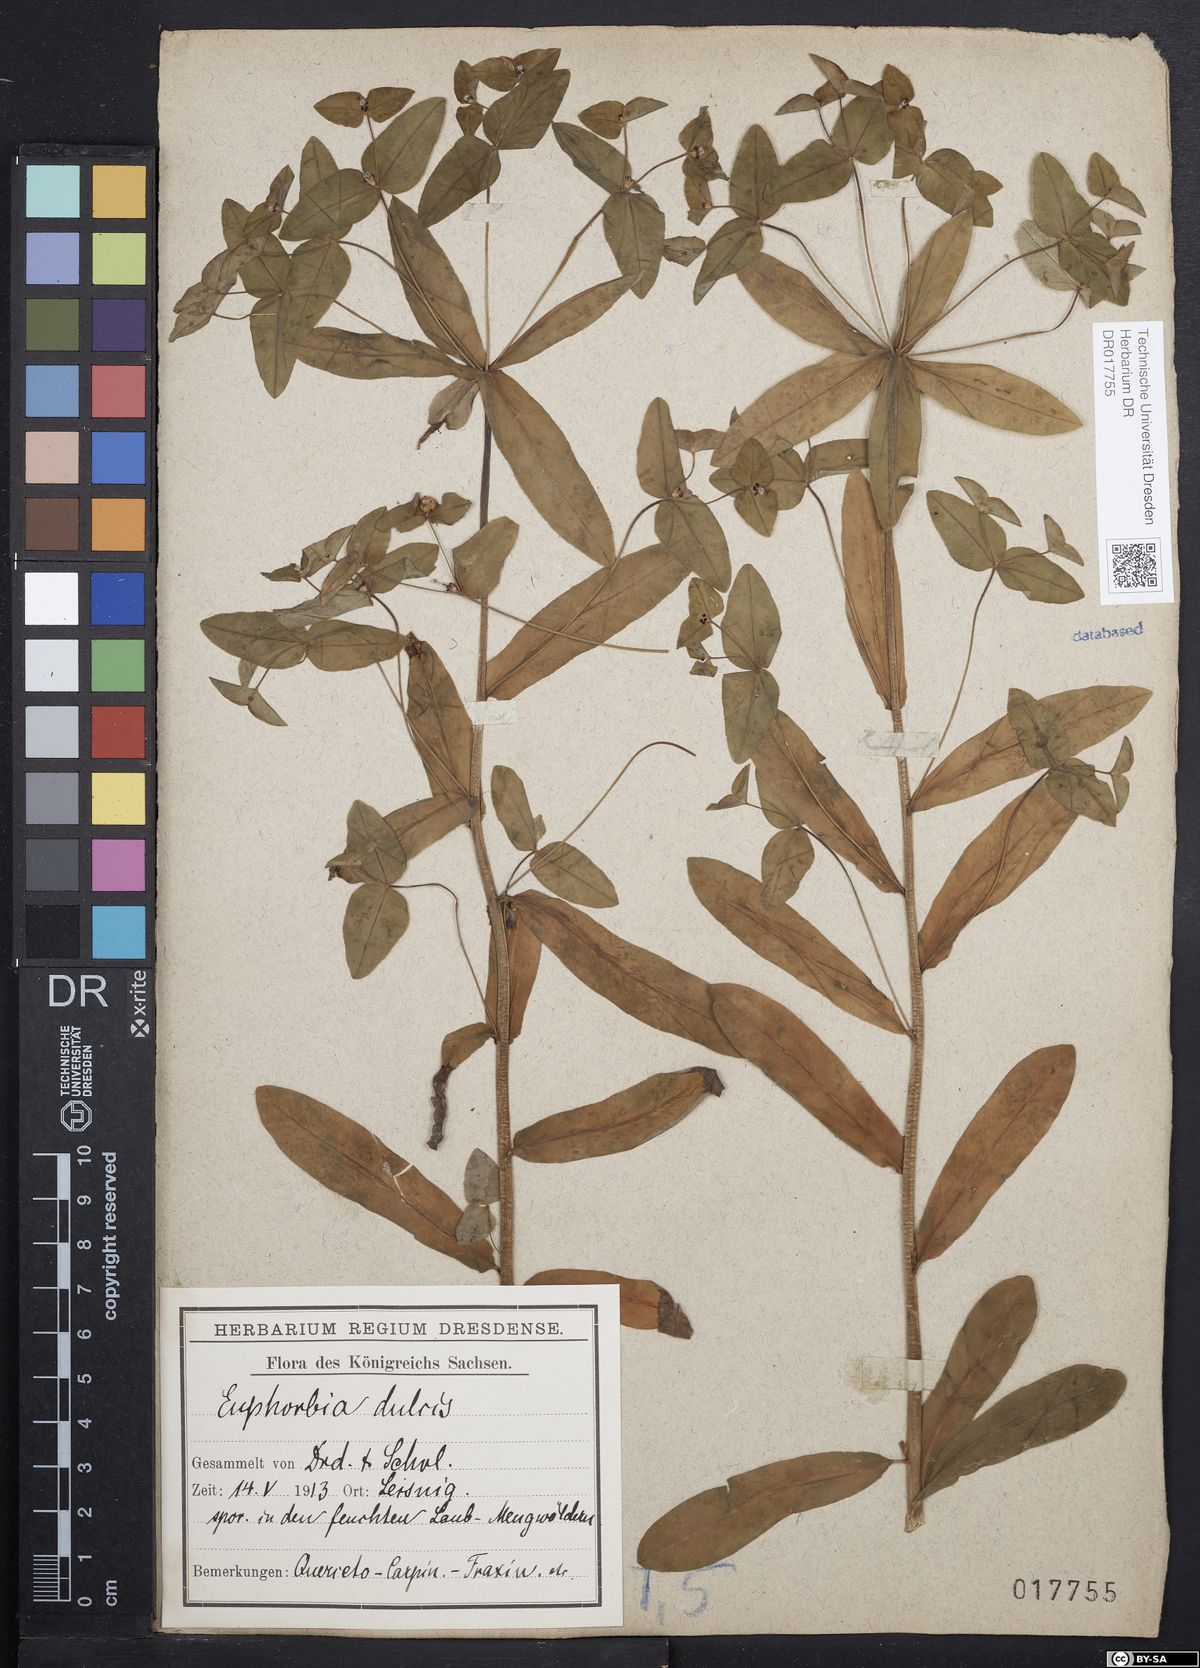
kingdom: Plantae
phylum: Tracheophyta
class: Magnoliopsida
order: Malpighiales
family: Euphorbiaceae
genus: Euphorbia
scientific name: Euphorbia dulcis
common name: Sweet spurge
